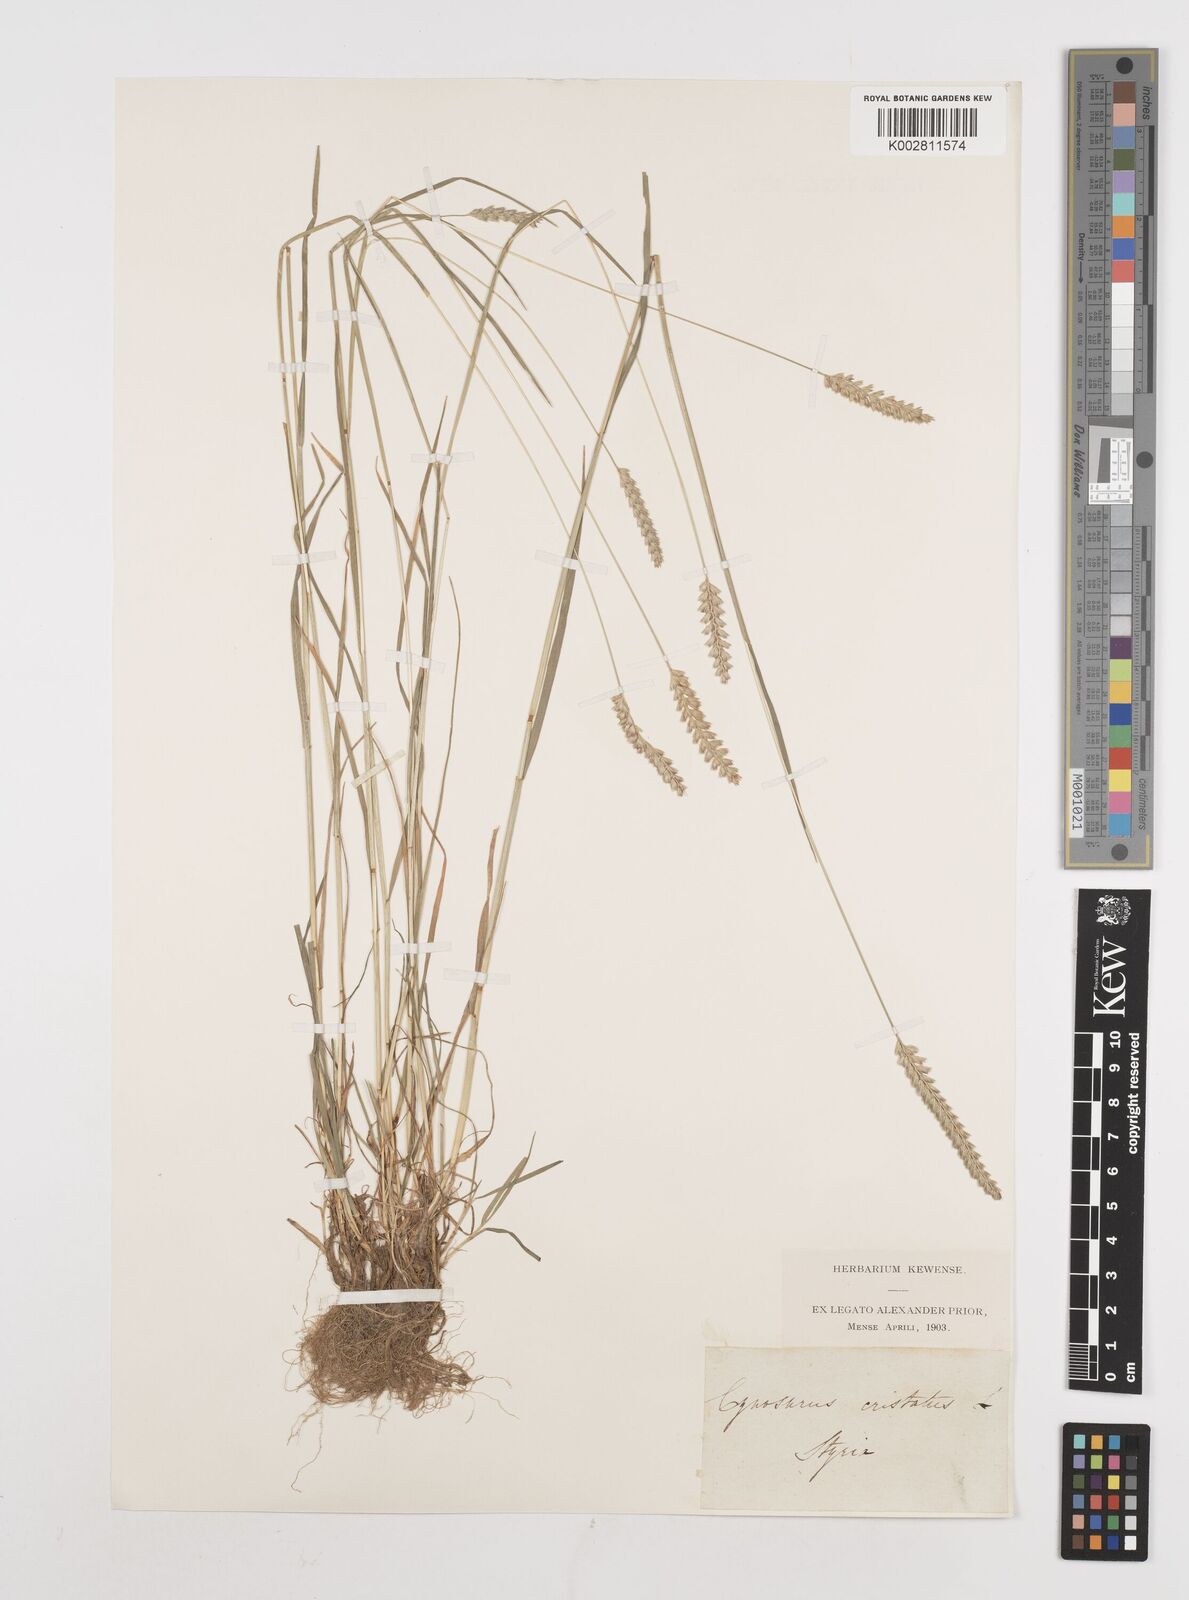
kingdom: Plantae
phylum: Tracheophyta
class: Liliopsida
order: Poales
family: Poaceae
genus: Cynosurus
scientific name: Cynosurus cristatus
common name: Crested dog's-tail
